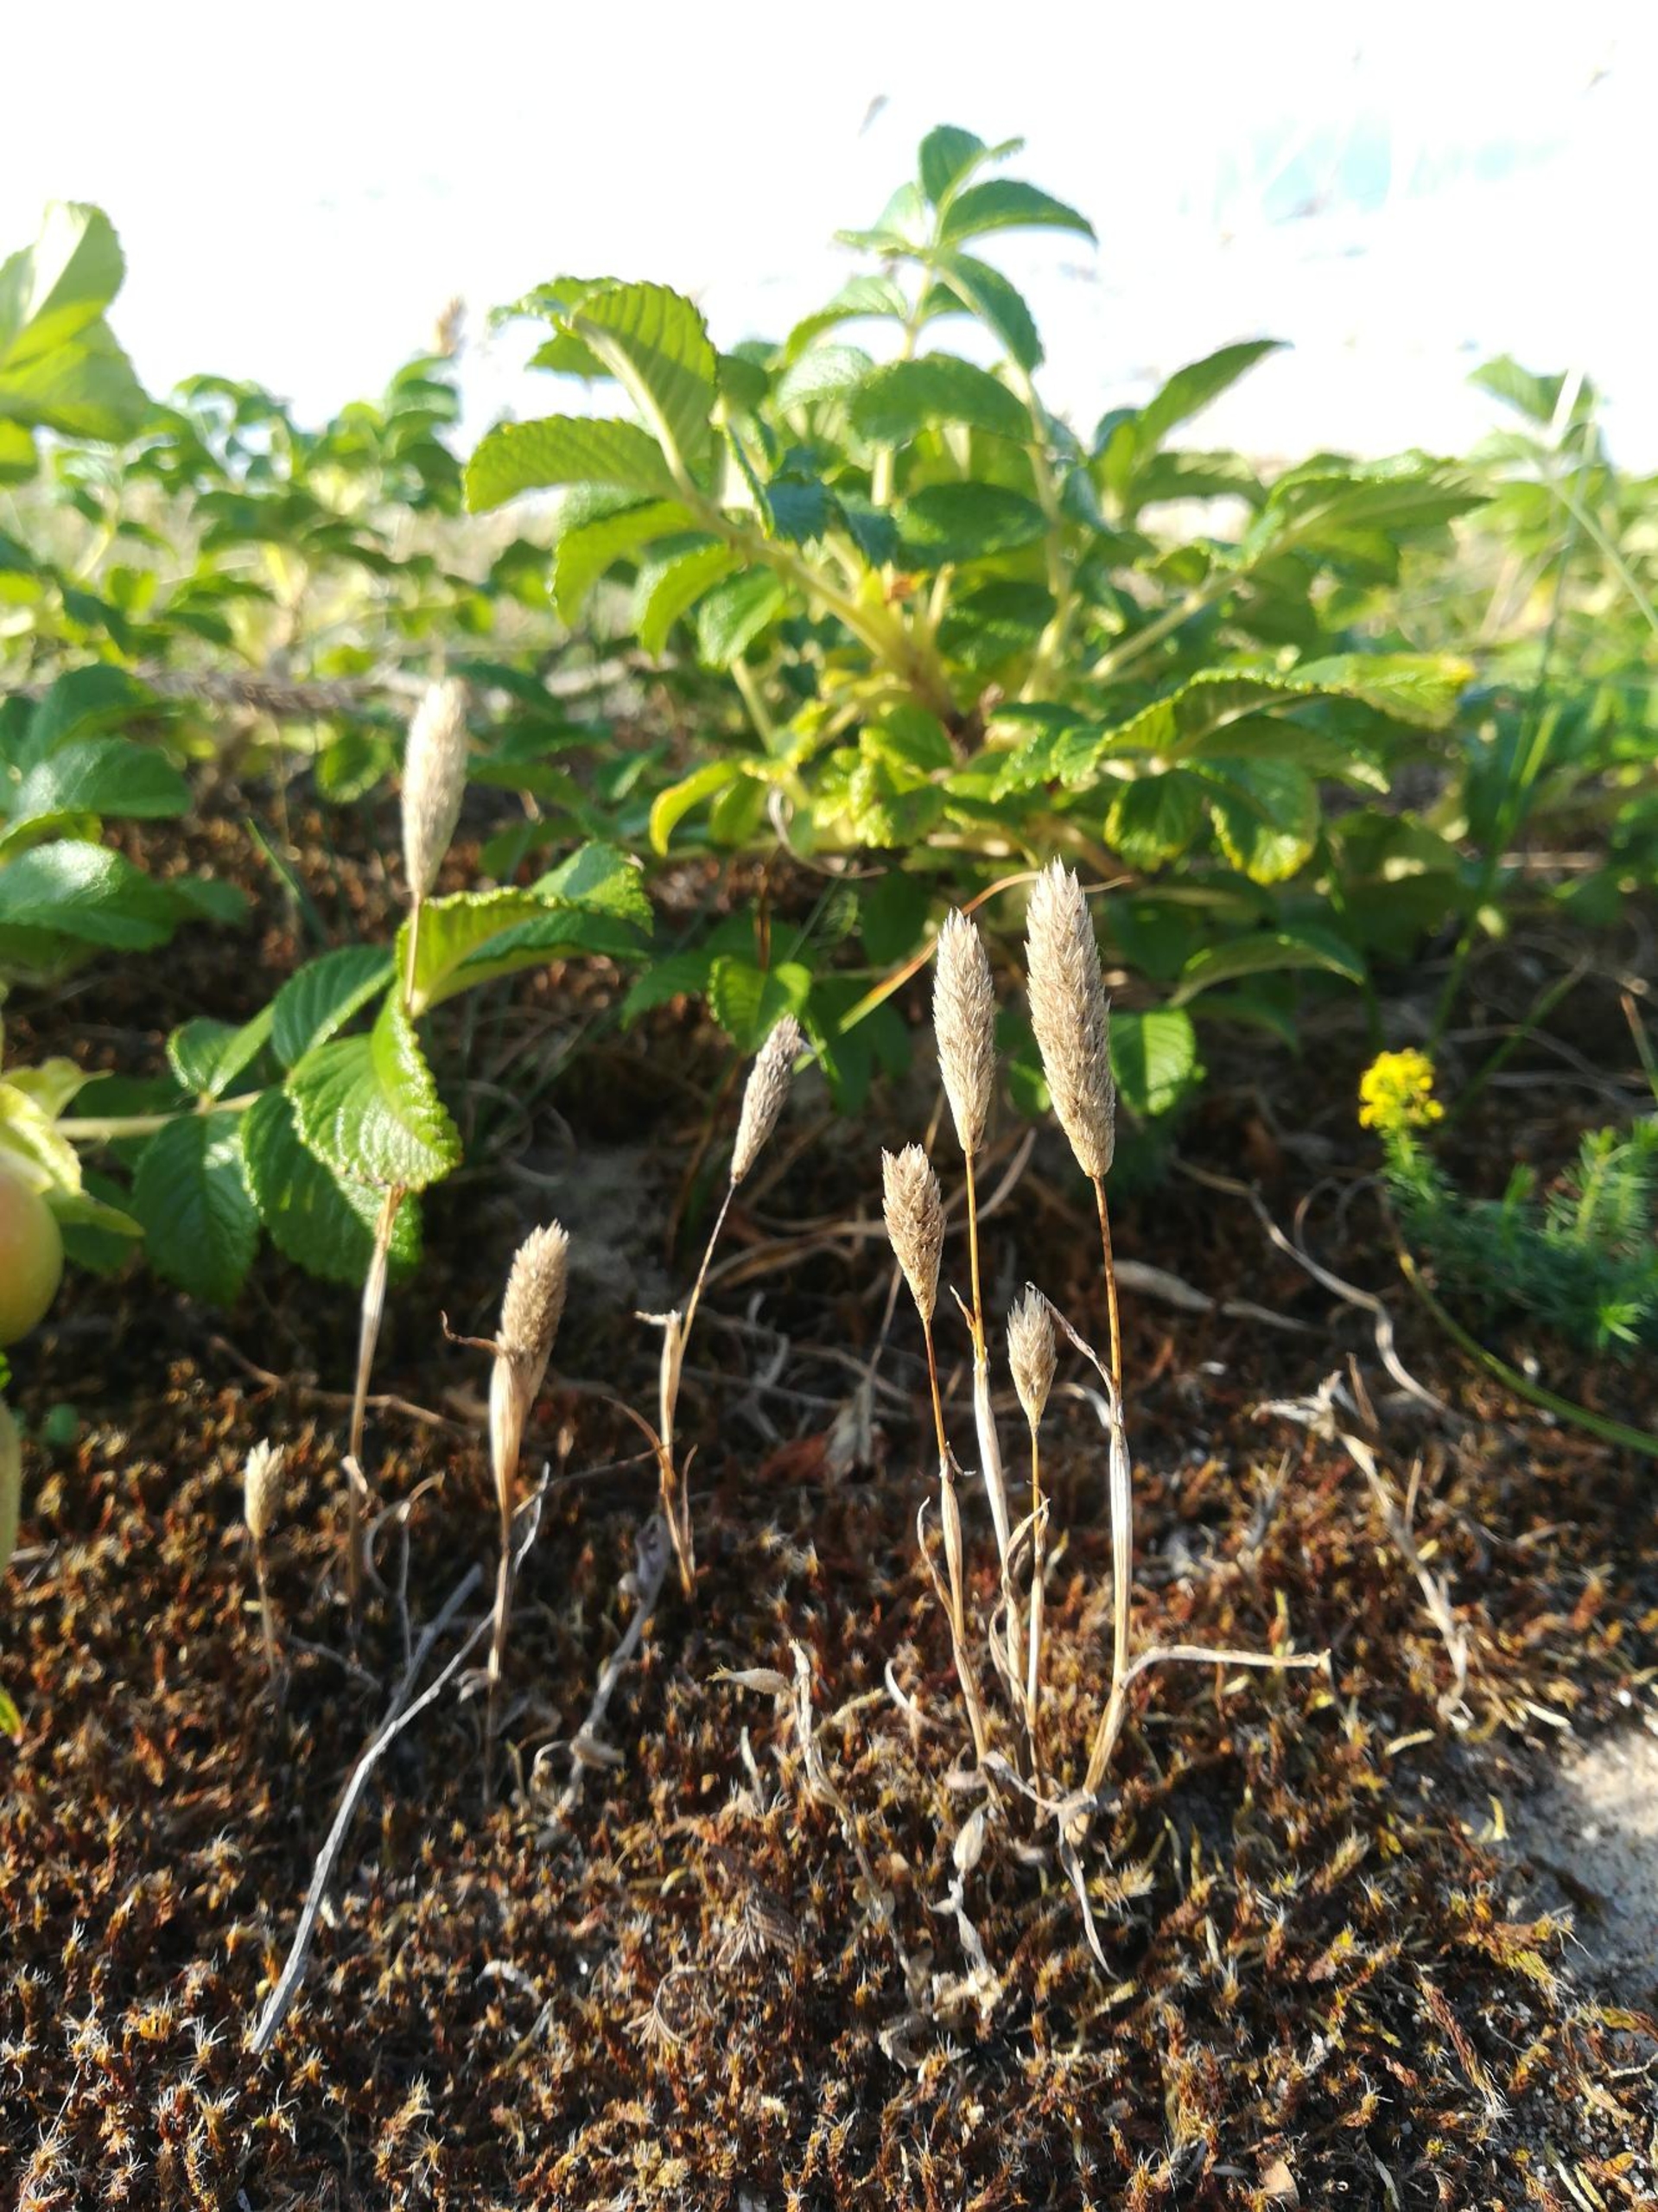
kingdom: Plantae
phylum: Tracheophyta
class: Liliopsida
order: Poales
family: Poaceae
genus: Phleum
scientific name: Phleum arenarium
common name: Sand-rottehale
